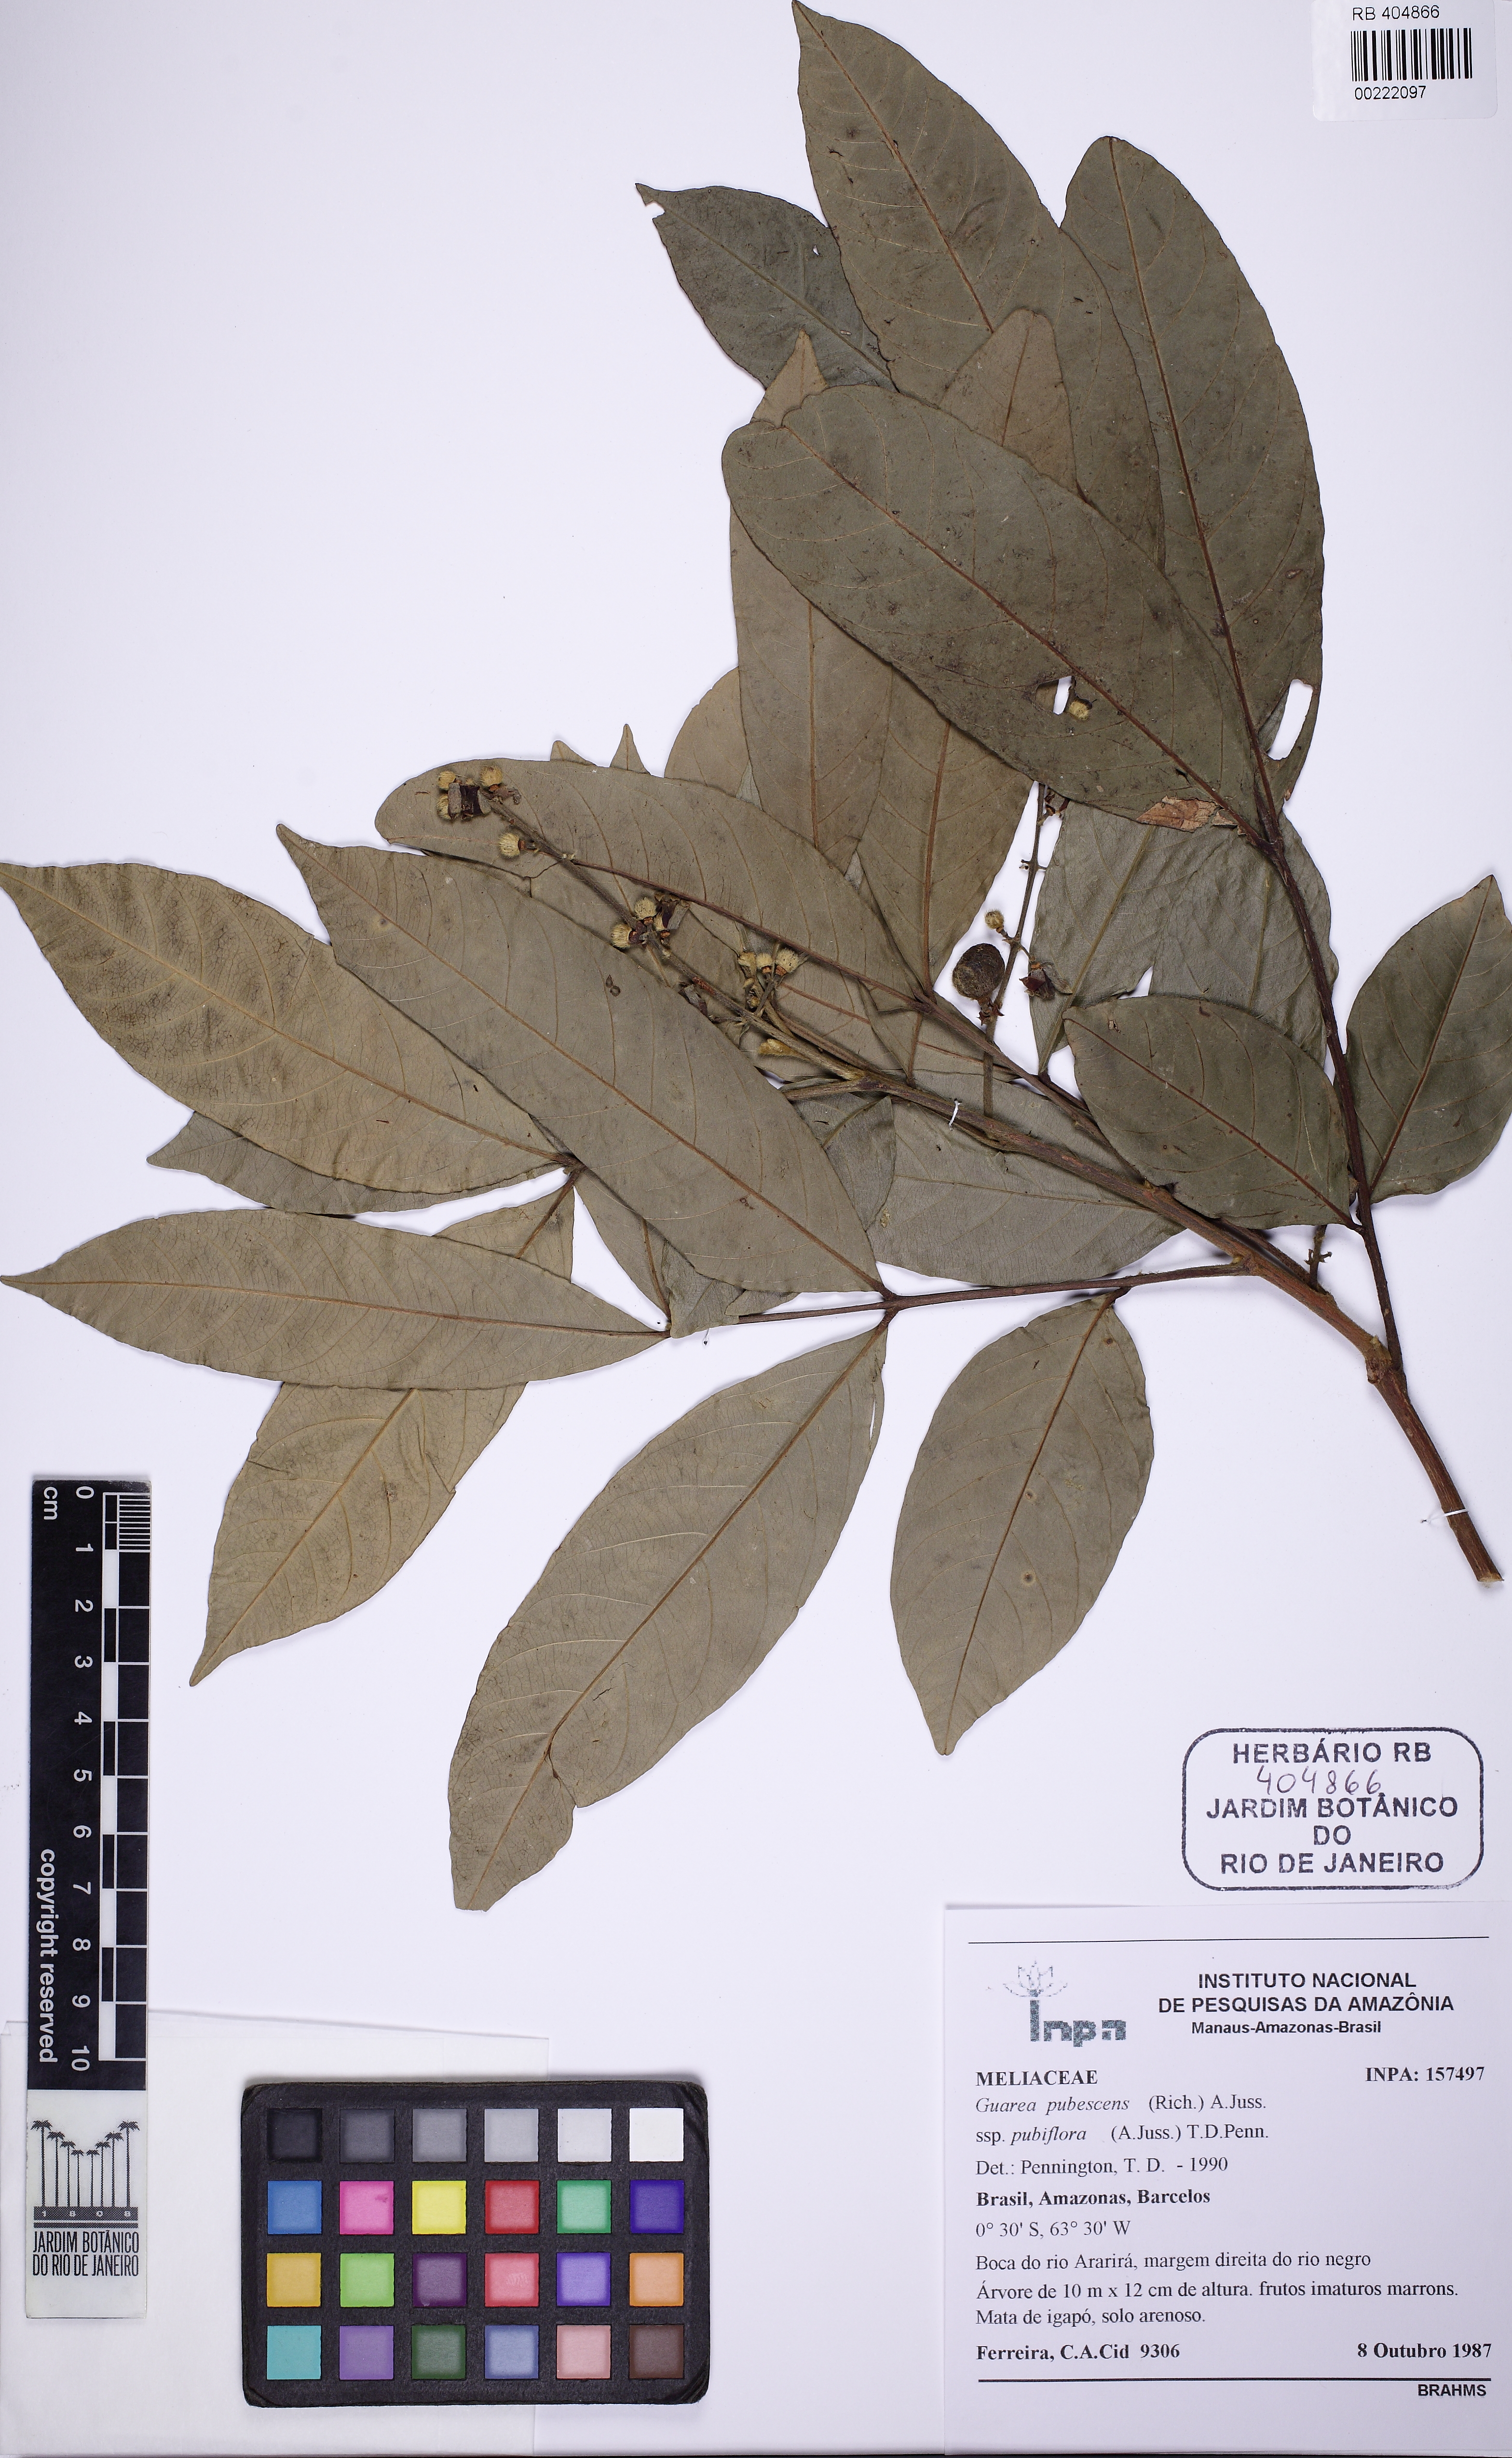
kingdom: Plantae
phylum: Tracheophyta
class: Magnoliopsida
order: Sapindales
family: Meliaceae
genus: Guarea
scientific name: Guarea pubescens
